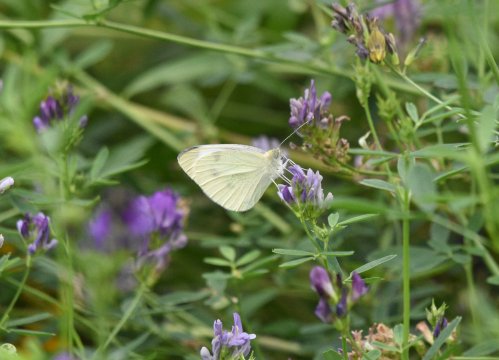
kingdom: Animalia
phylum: Arthropoda
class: Insecta
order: Lepidoptera
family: Pieridae
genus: Pieris
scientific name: Pieris rapae
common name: Cabbage White
